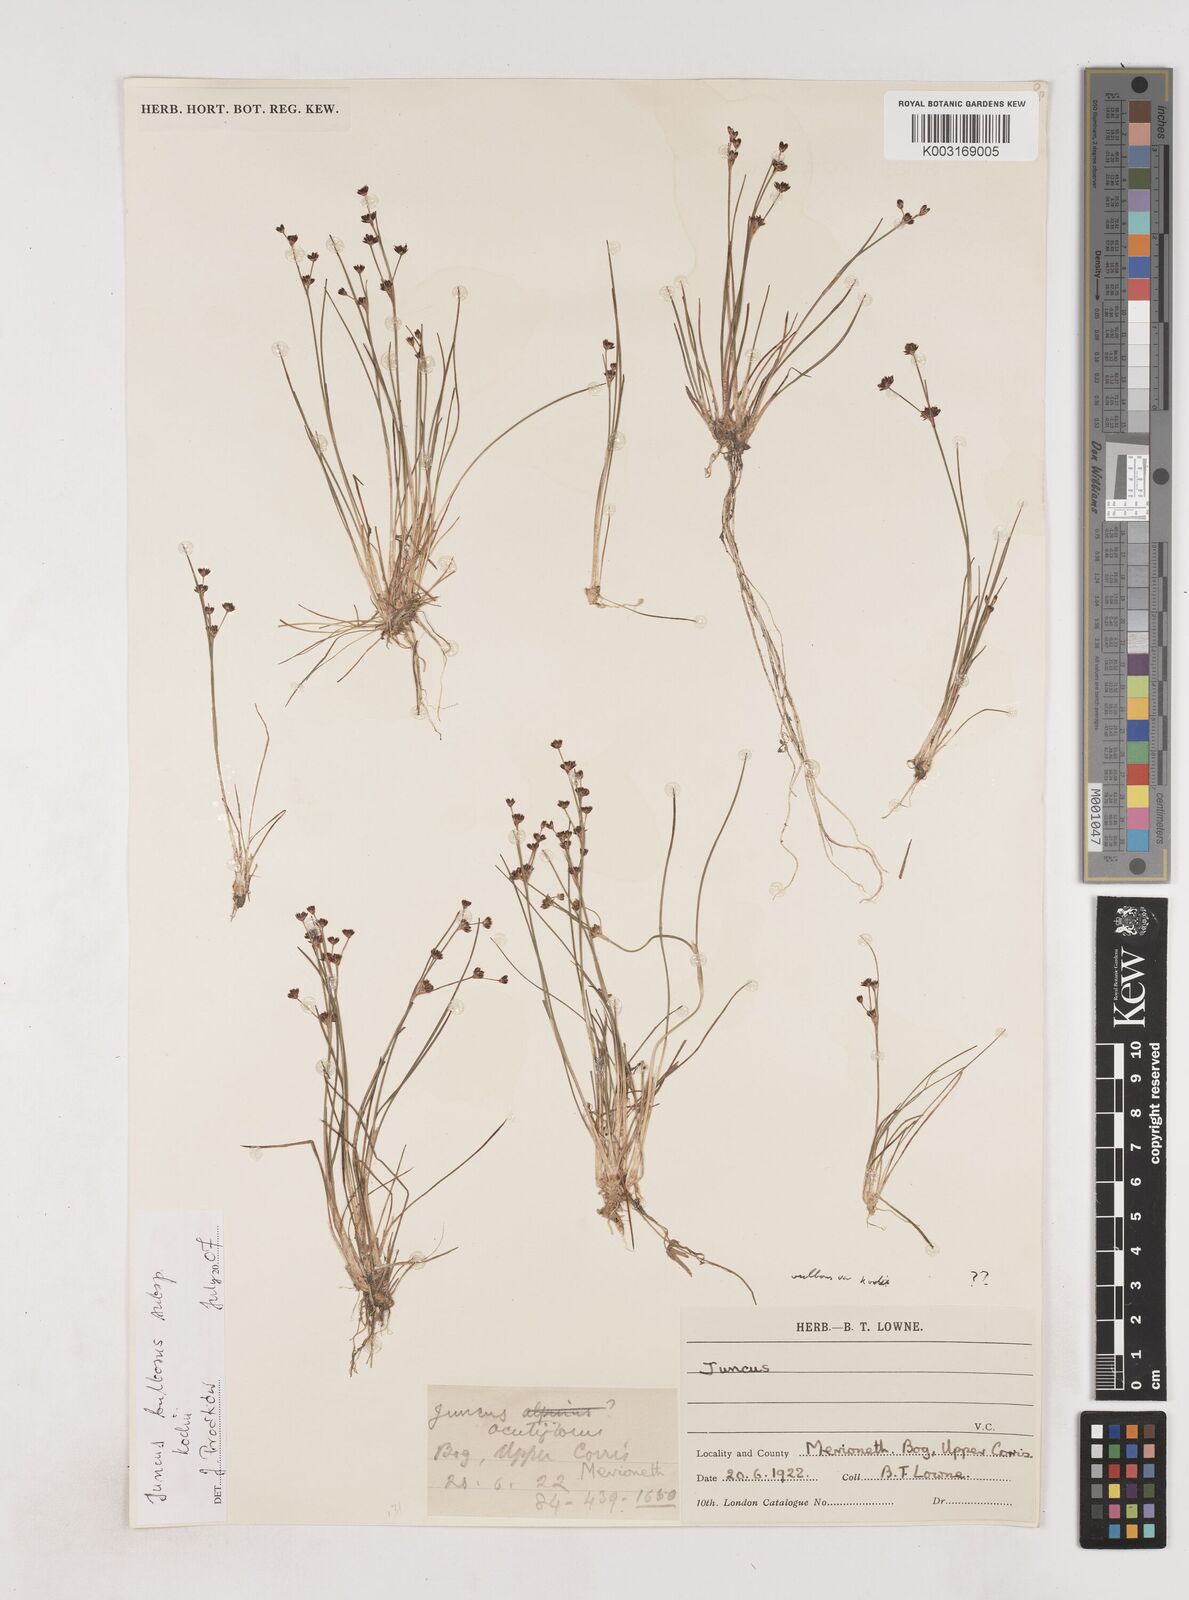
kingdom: Plantae
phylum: Tracheophyta
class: Liliopsida
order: Poales
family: Juncaceae
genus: Juncus
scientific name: Juncus bulbosus
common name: Bulbous rush
